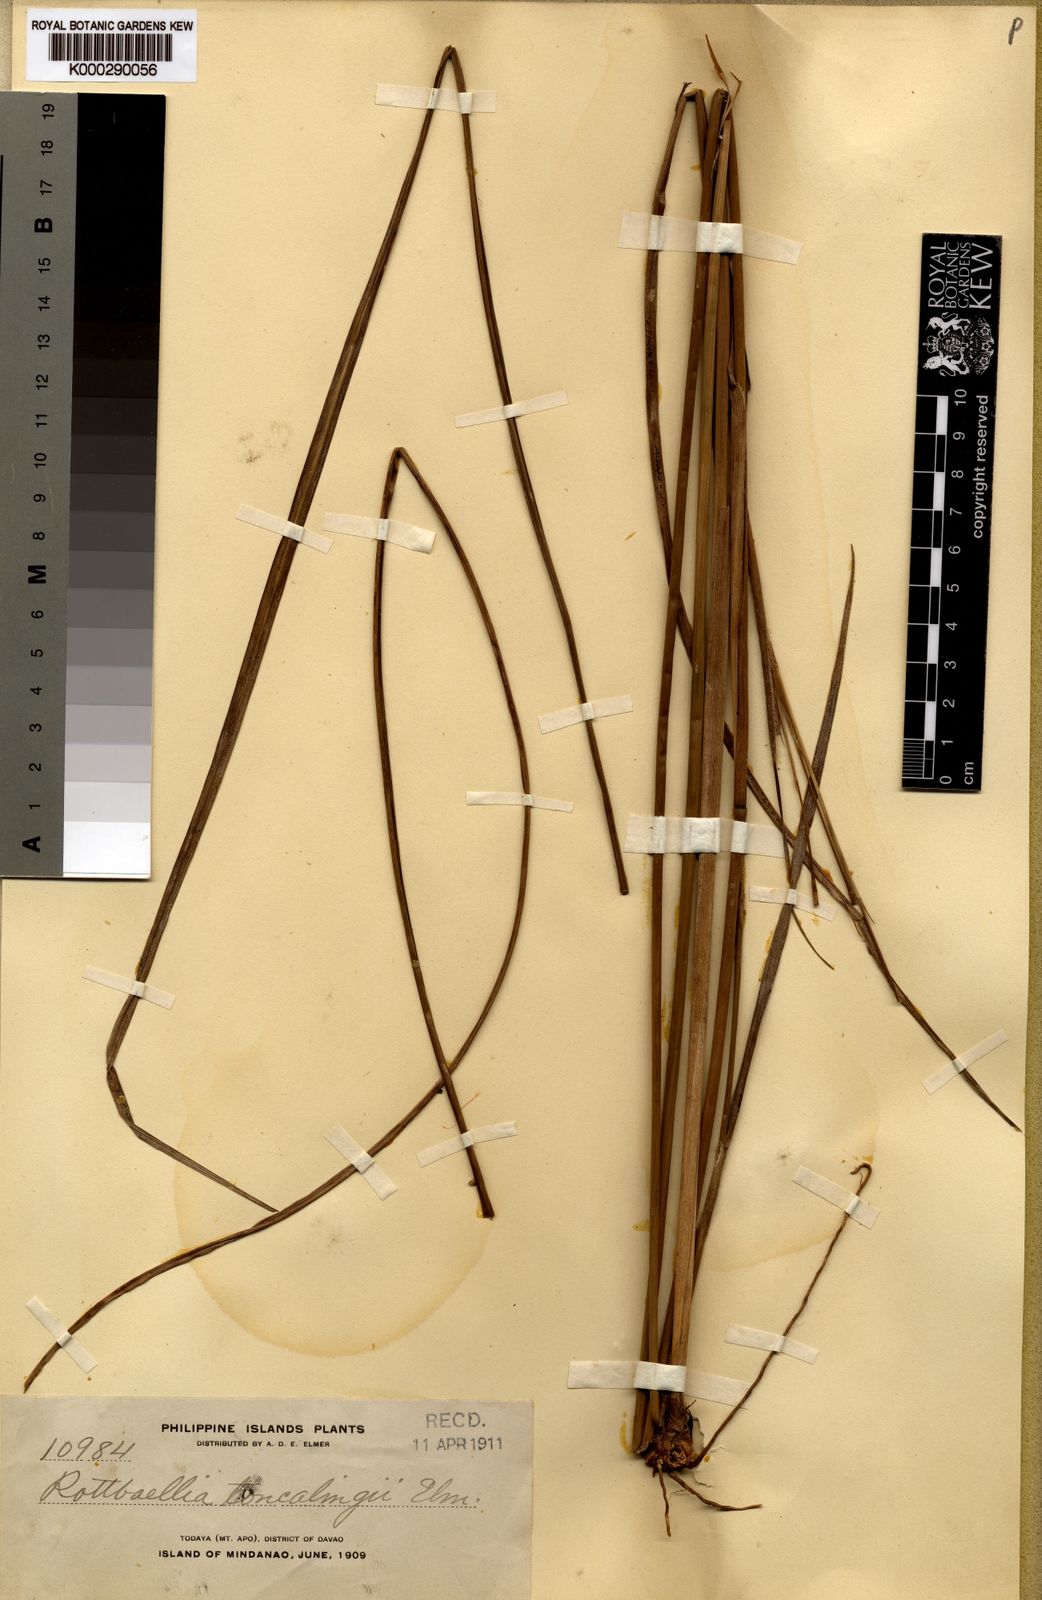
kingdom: Plantae
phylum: Tracheophyta
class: Liliopsida
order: Poales
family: Poaceae
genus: Ophiuros
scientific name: Ophiuros exaltatus
